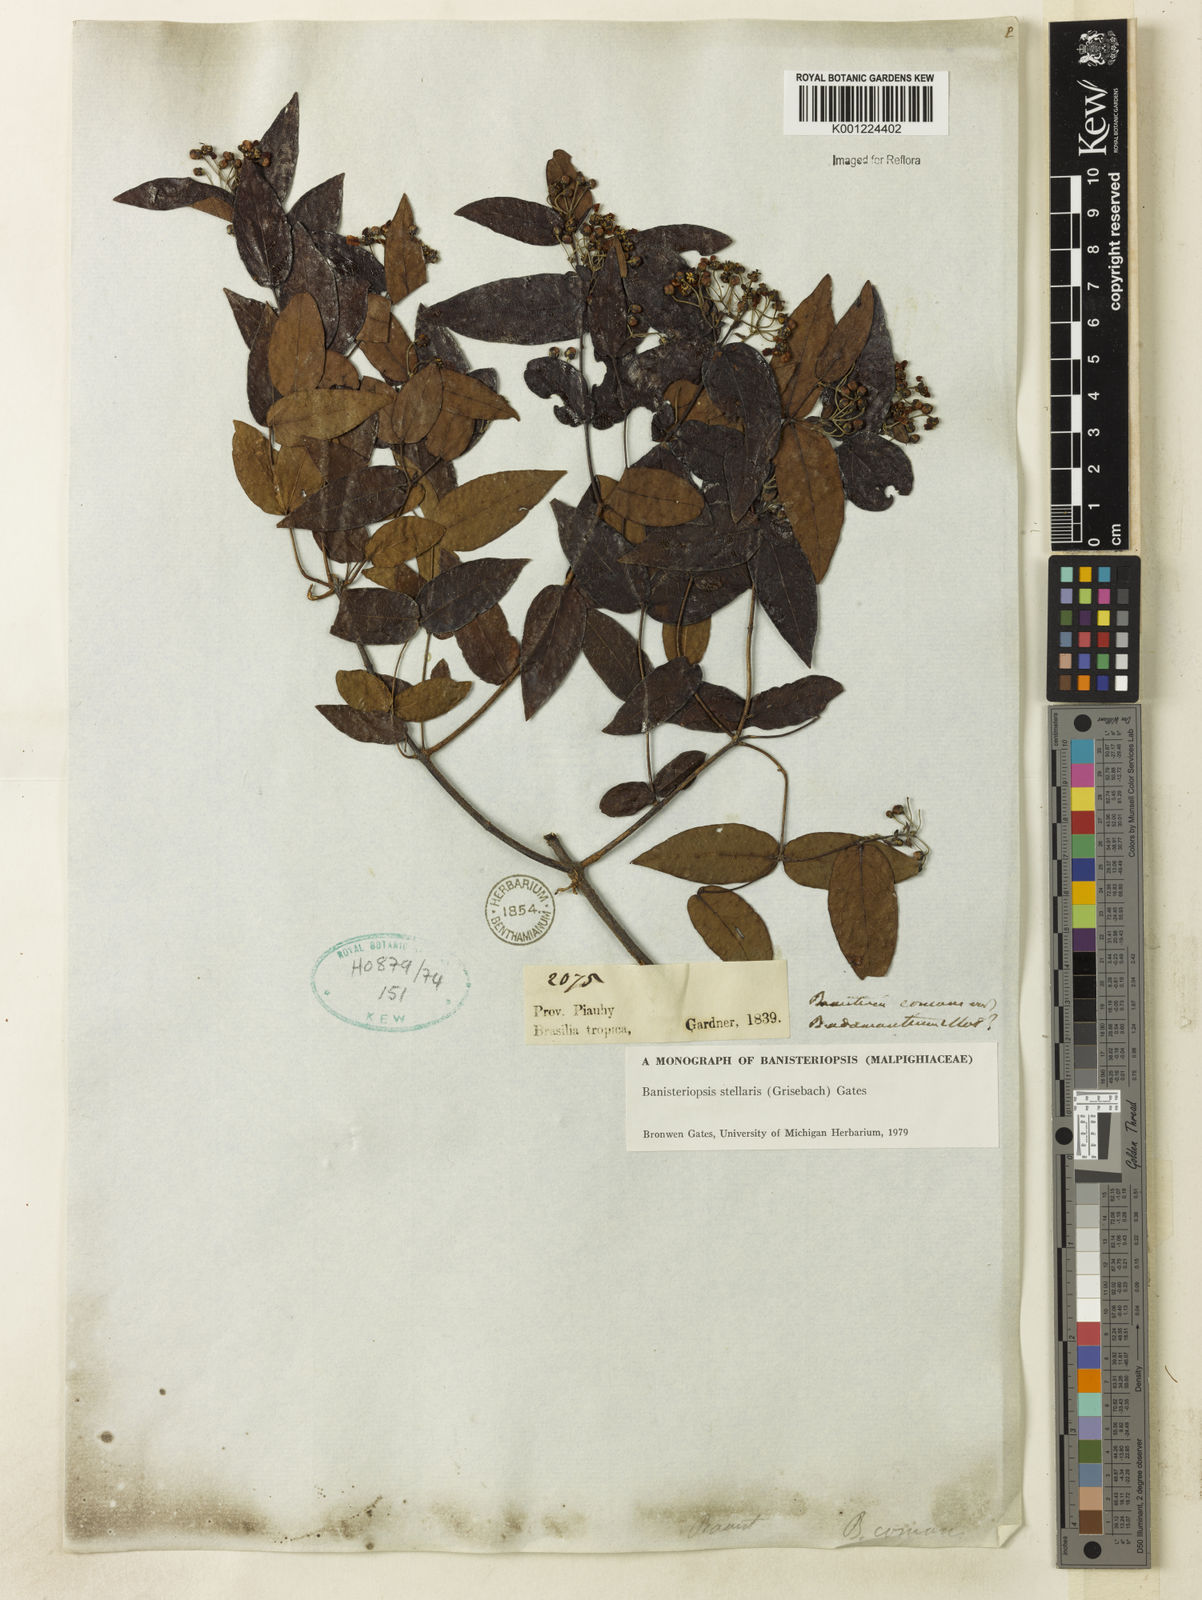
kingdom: Plantae
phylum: Tracheophyta
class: Magnoliopsida
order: Malpighiales
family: Malpighiaceae
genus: Banisteriopsis
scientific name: Banisteriopsis stellaris
